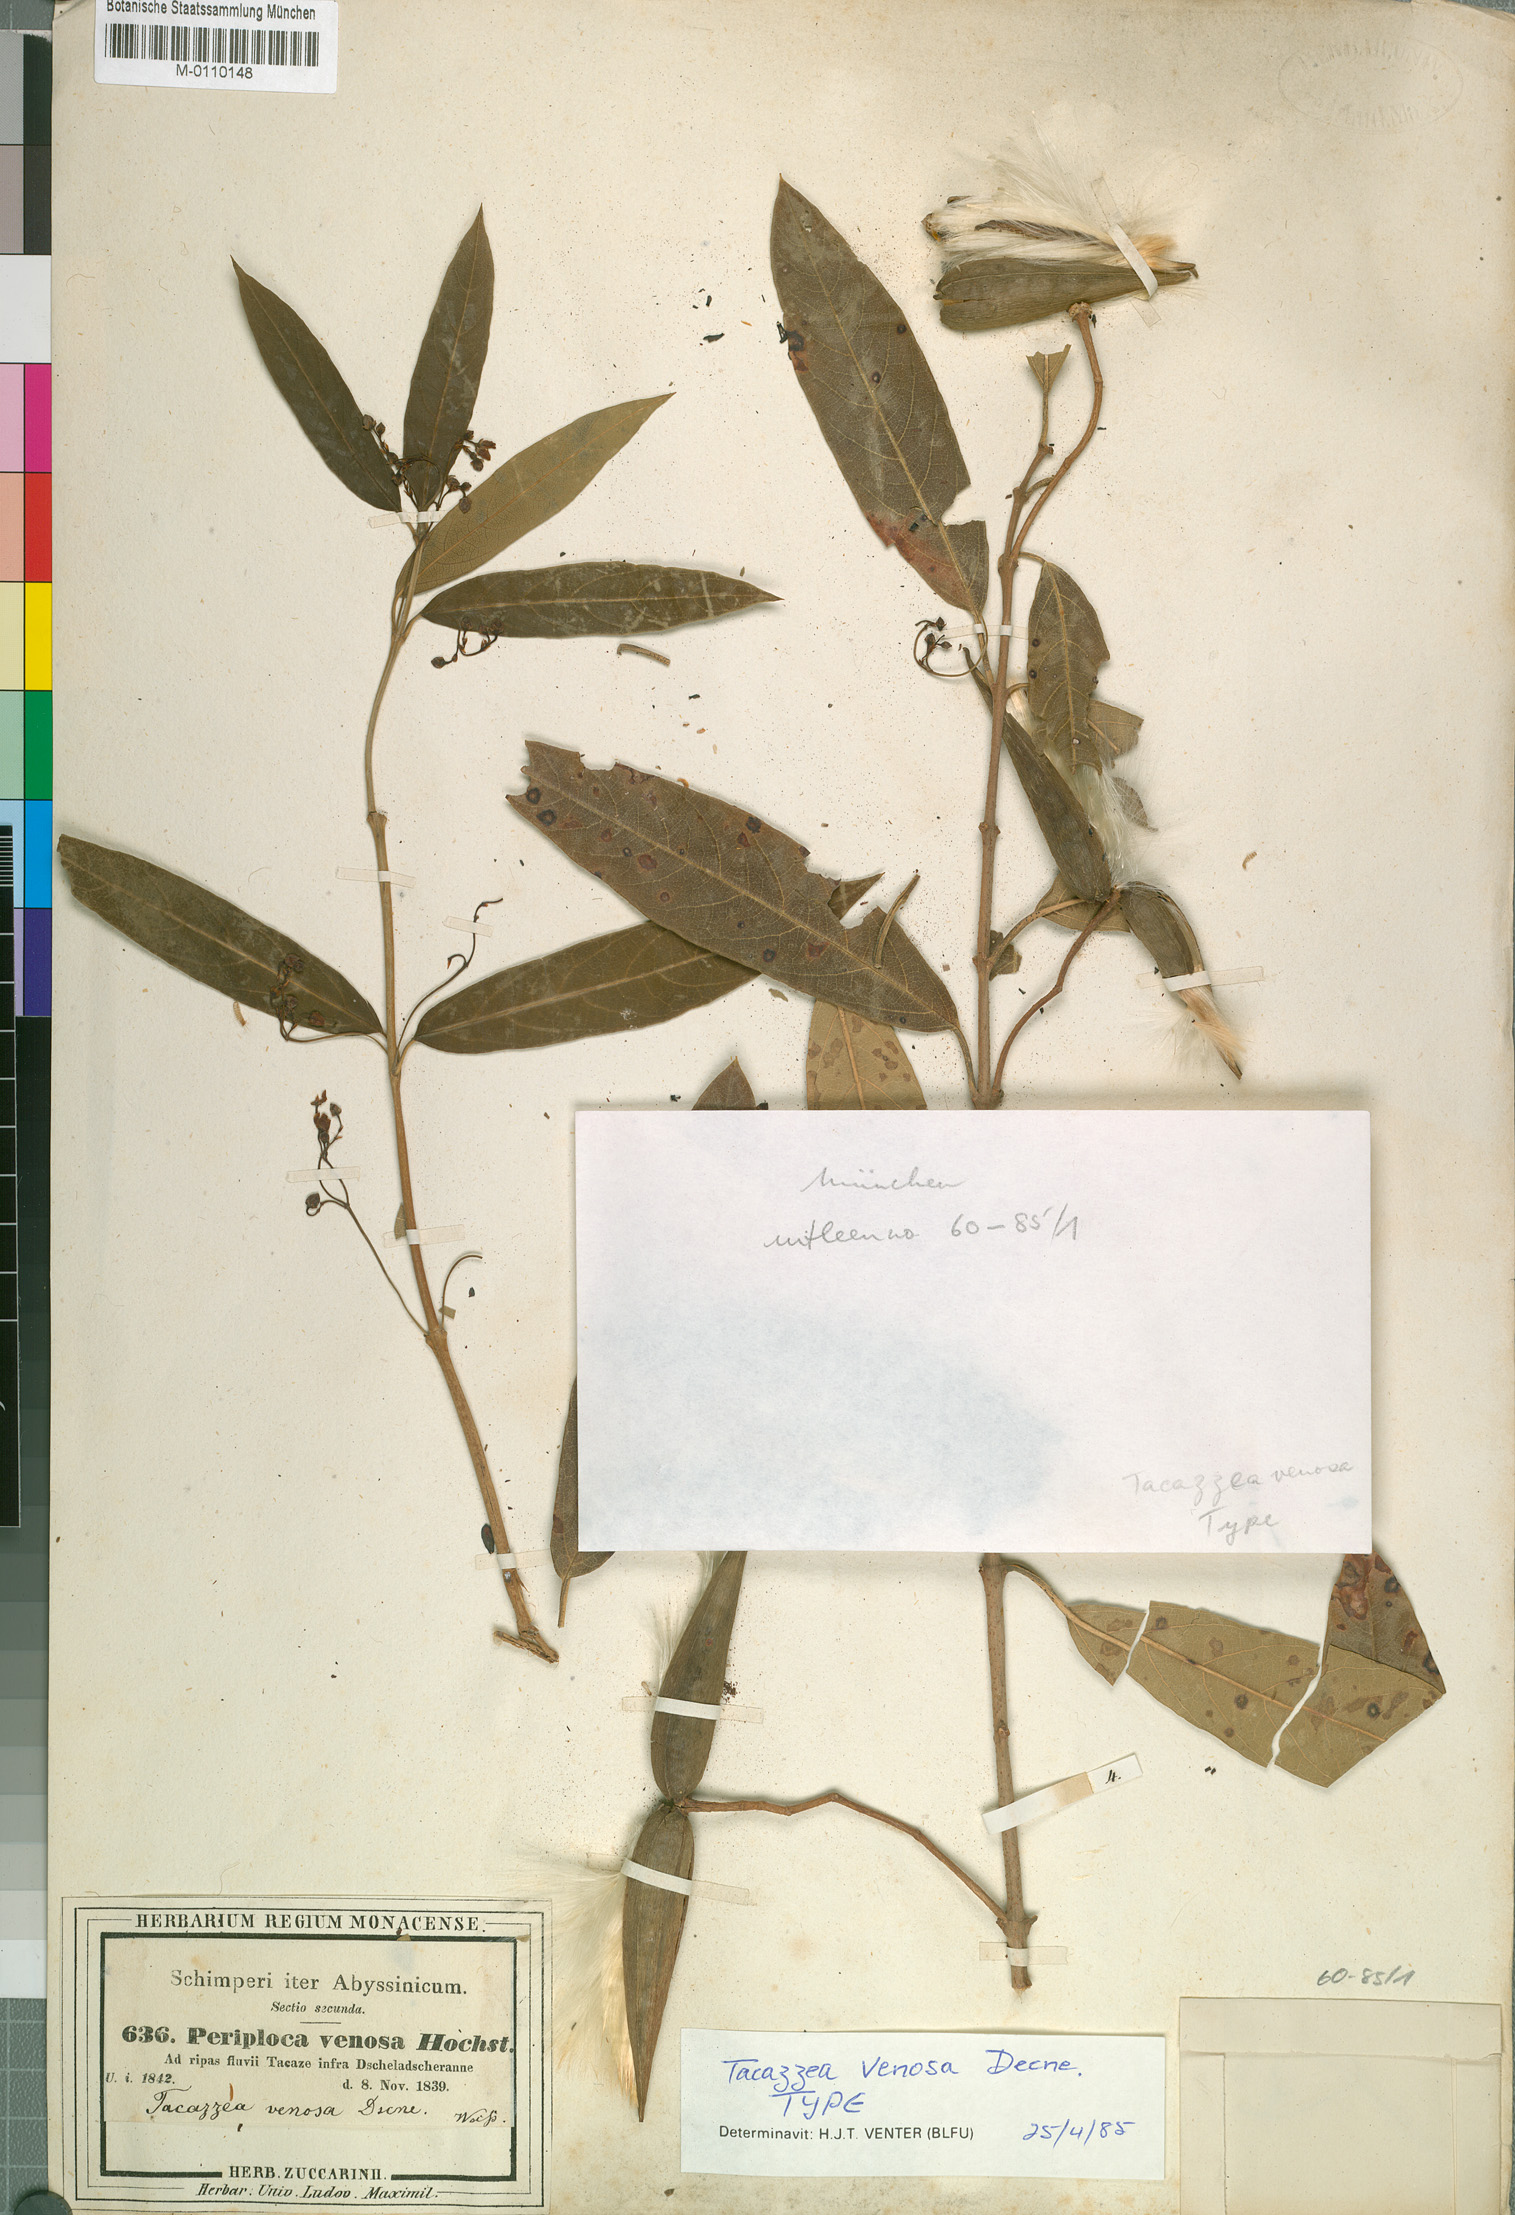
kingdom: Plantae
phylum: Tracheophyta
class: Magnoliopsida
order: Gentianales
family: Apocynaceae
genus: Tacazzea
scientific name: Tacazzea venosa
